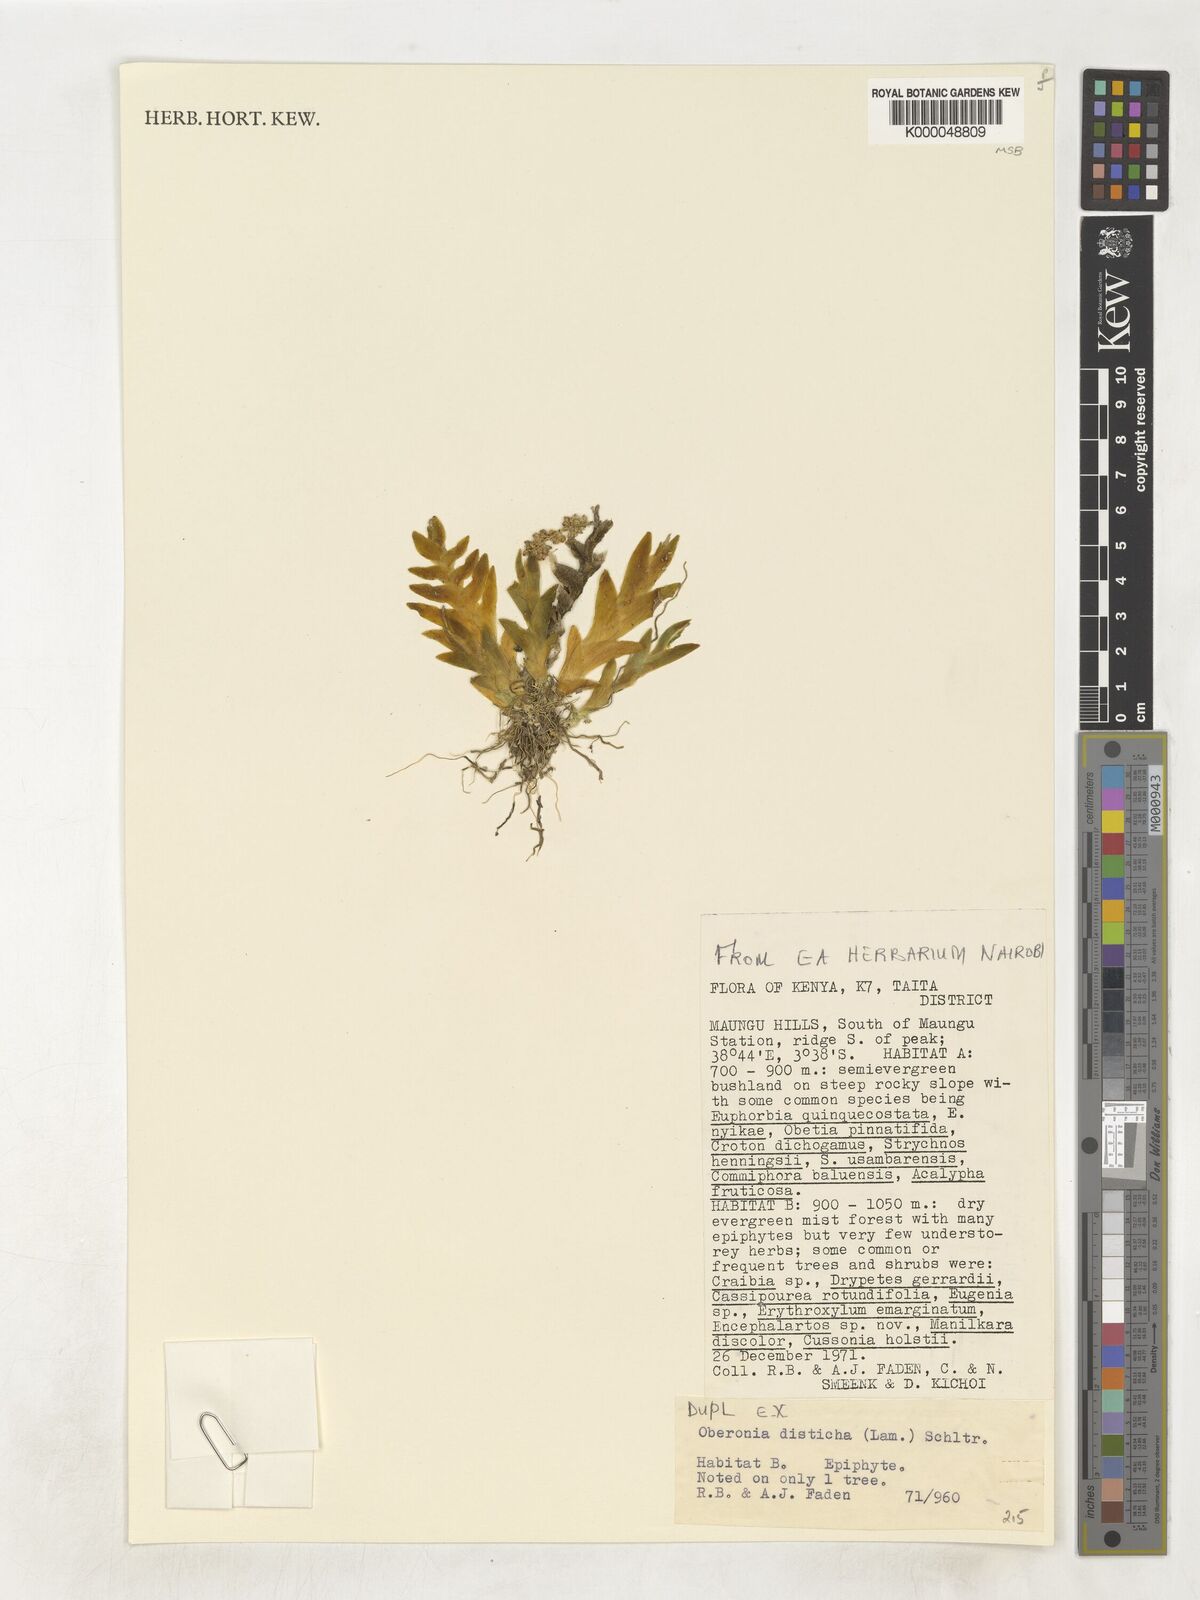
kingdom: Plantae
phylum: Tracheophyta
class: Liliopsida
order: Asparagales
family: Orchidaceae
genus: Oberonia
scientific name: Oberonia disticha
